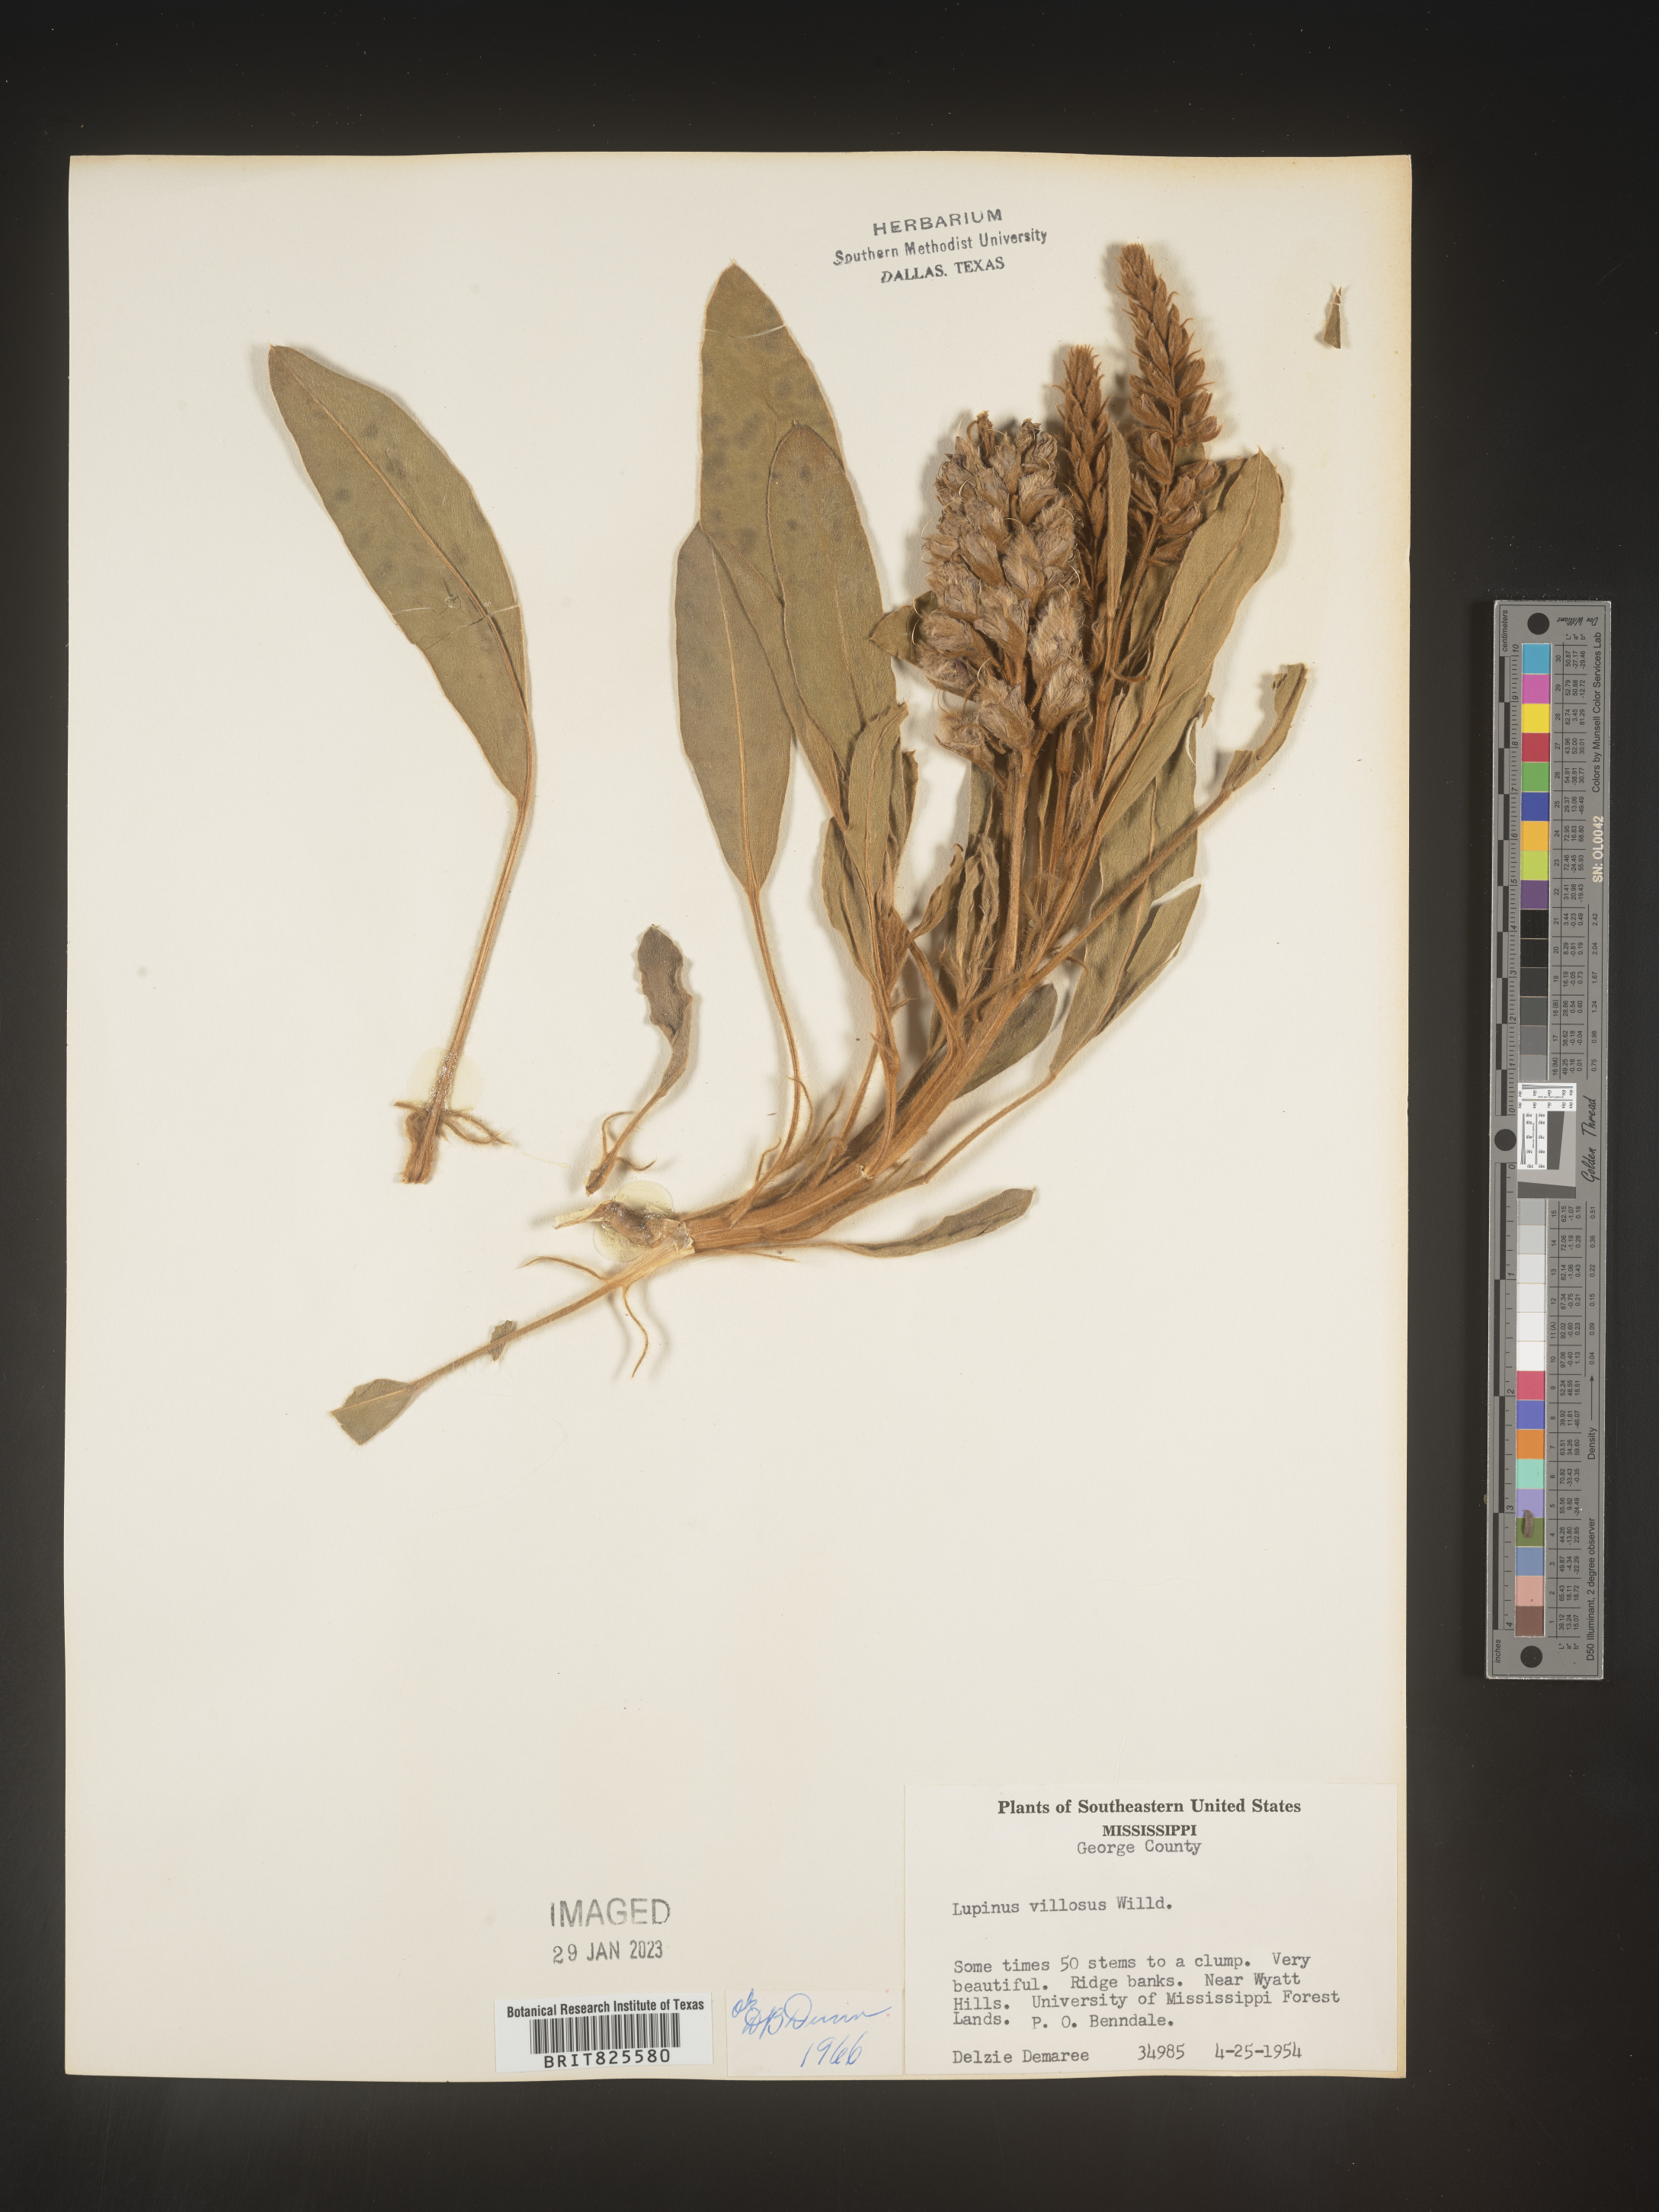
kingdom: Plantae
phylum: Tracheophyta
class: Magnoliopsida
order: Fabales
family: Fabaceae
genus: Lupinus
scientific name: Lupinus villosus
